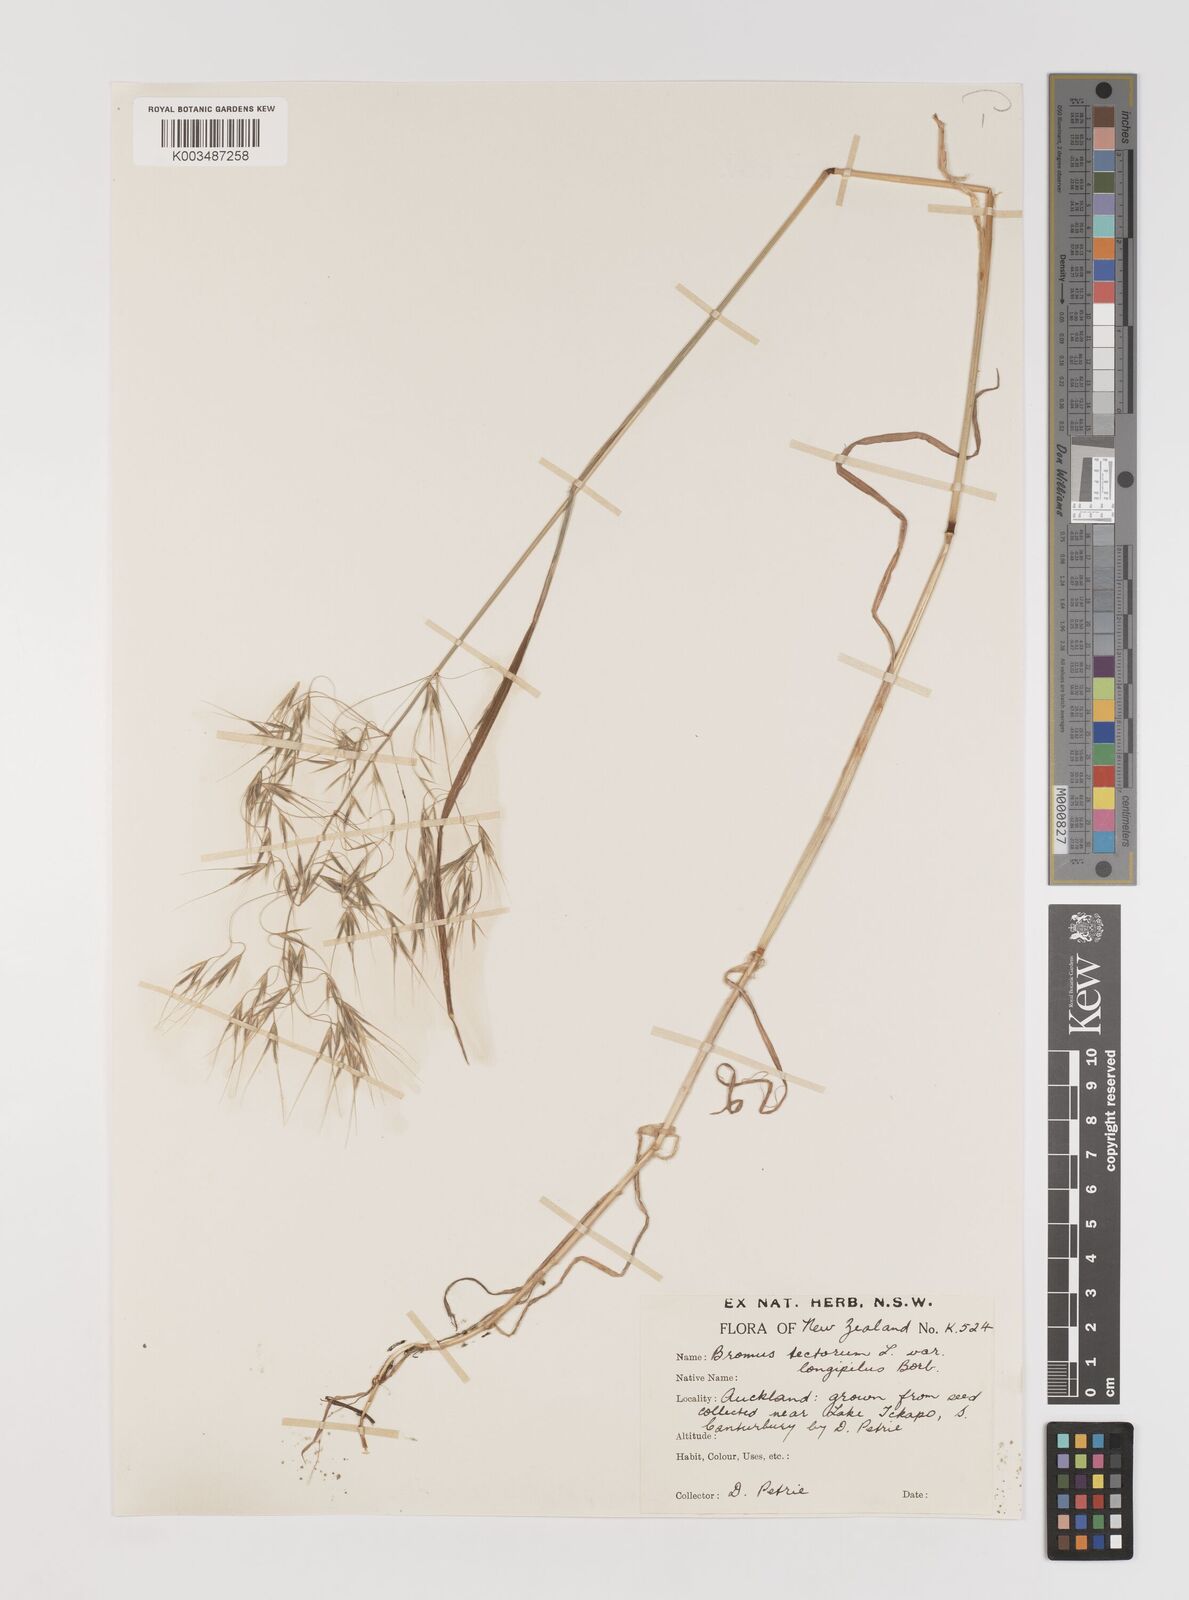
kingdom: Plantae
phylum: Tracheophyta
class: Liliopsida
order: Poales
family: Poaceae
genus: Bromus
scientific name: Bromus tectorum
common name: Cheatgrass
